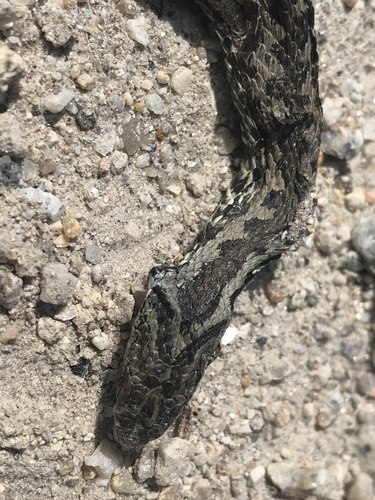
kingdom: Animalia
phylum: Chordata
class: Squamata
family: Viperidae
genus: Vipera
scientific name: Vipera seoanei
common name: Portugese viper
